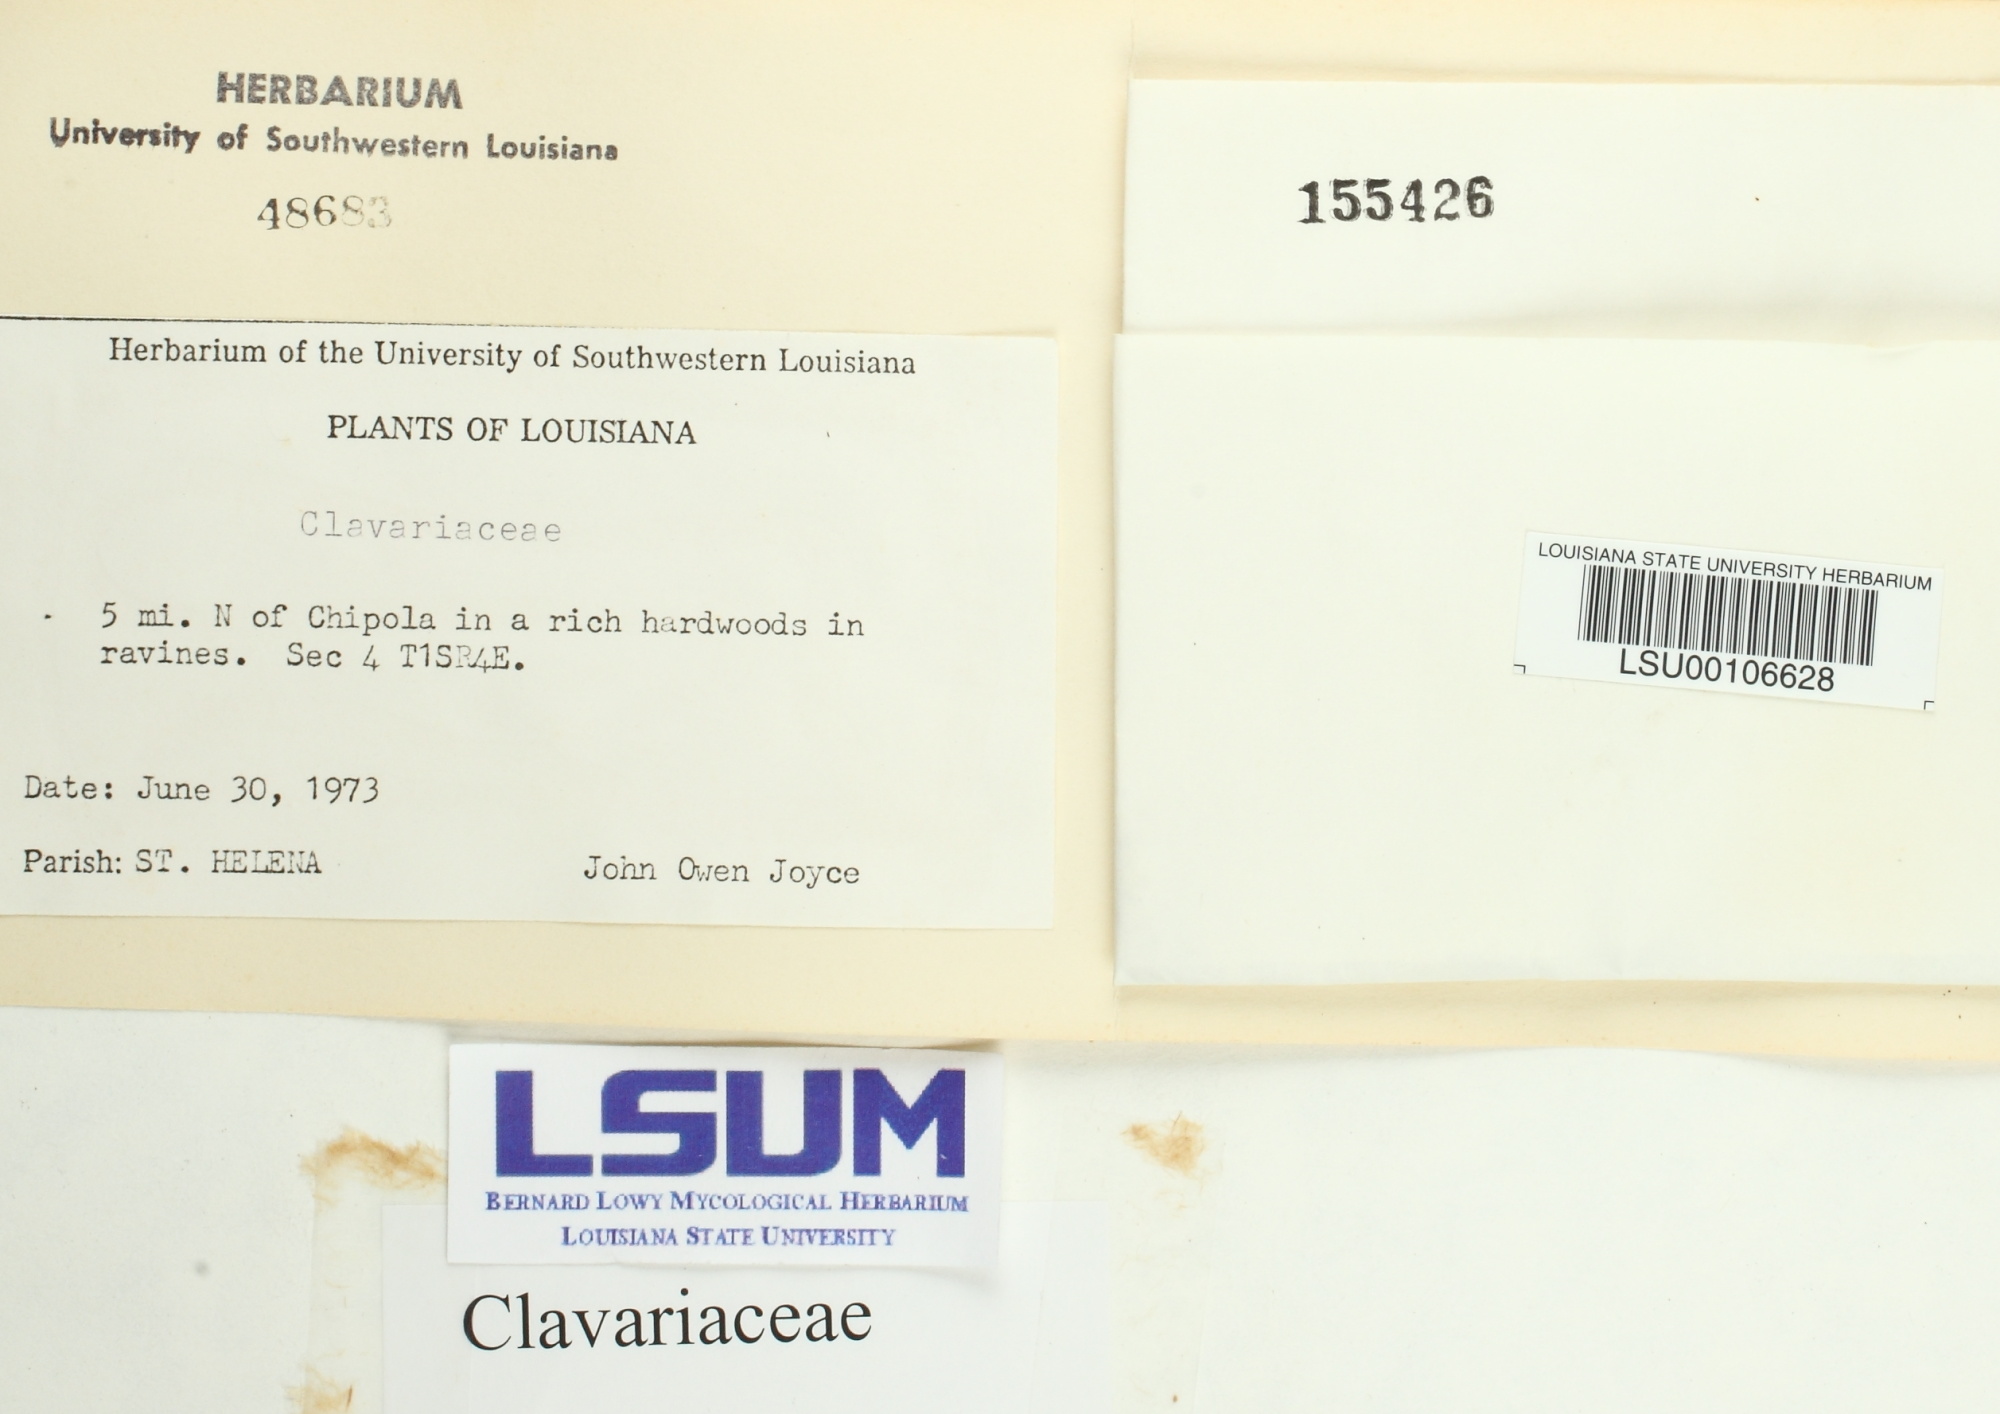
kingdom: Fungi
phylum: Basidiomycota
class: Agaricomycetes
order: Agaricales
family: Clavariaceae
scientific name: Clavariaceae
